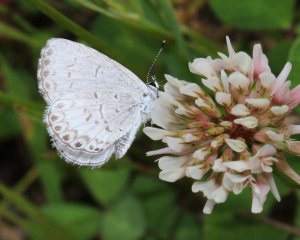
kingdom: Animalia
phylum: Arthropoda
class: Insecta
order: Lepidoptera
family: Lycaenidae
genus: Cyaniris
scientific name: Cyaniris neglecta
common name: Summer Azure
